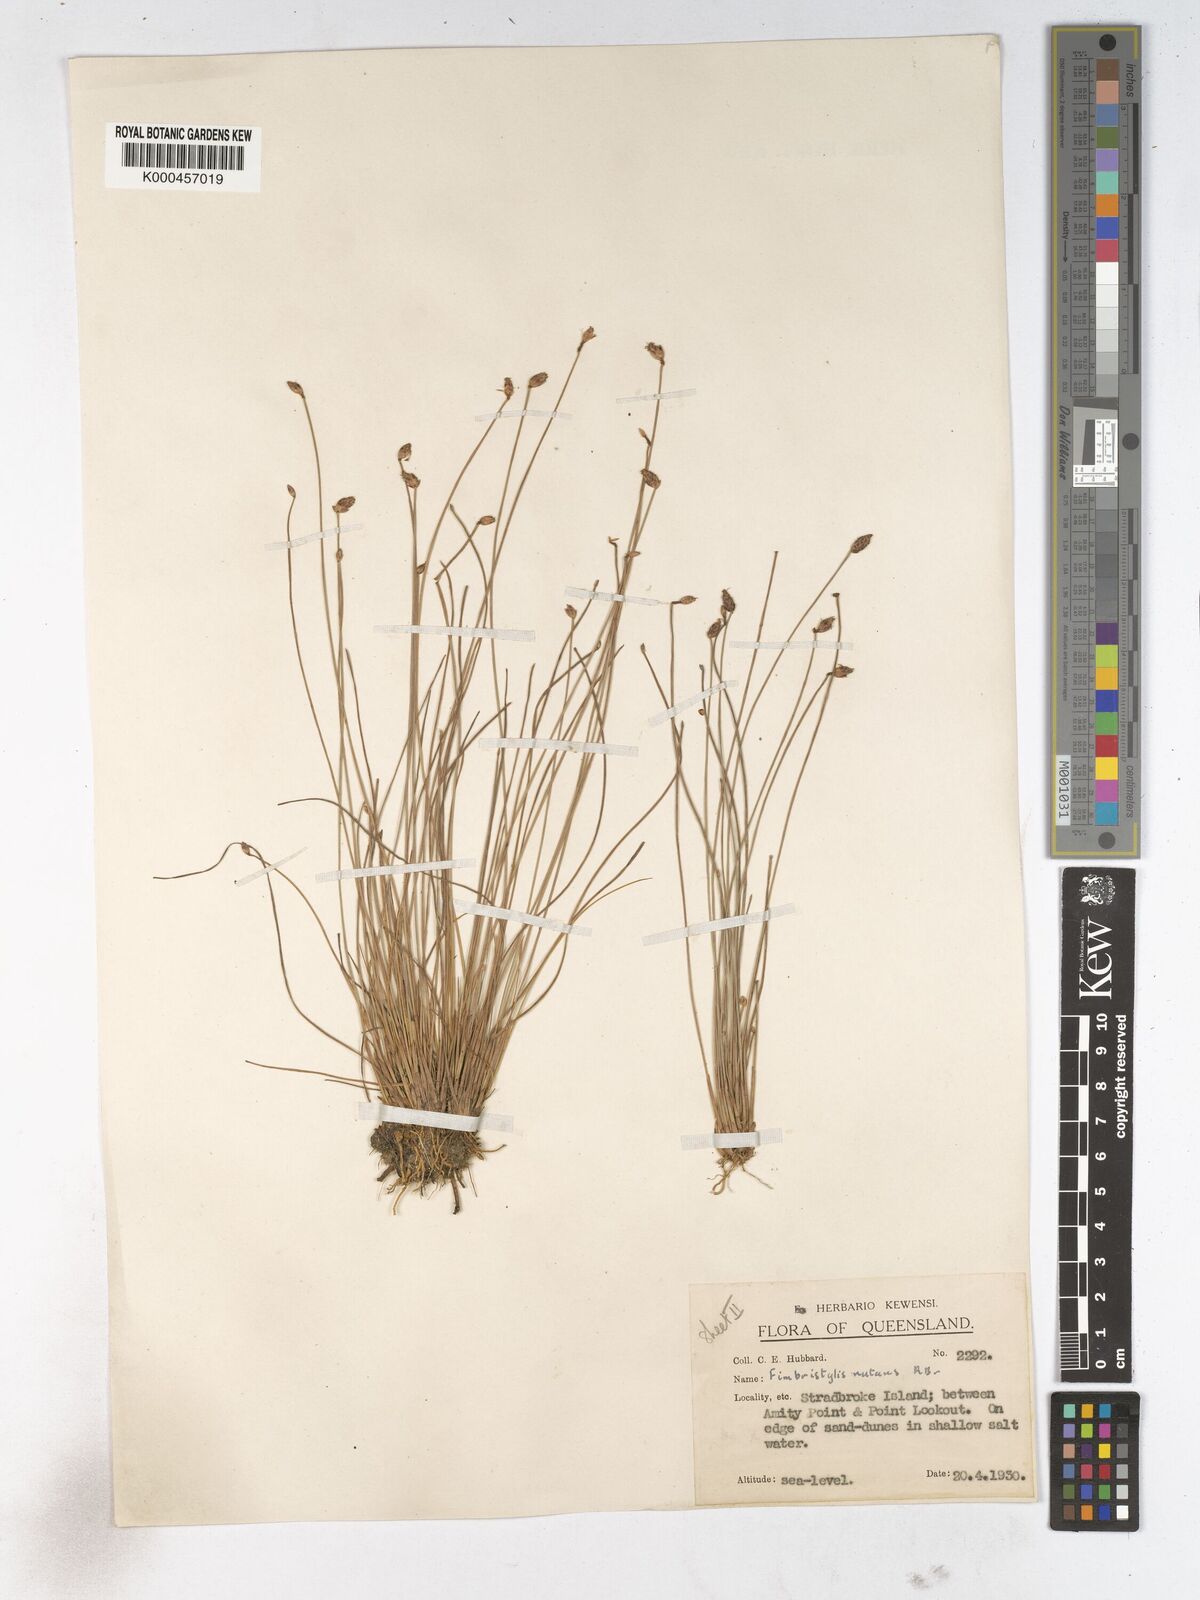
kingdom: Plantae
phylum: Tracheophyta
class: Liliopsida
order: Poales
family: Cyperaceae
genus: Fimbristylis
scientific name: Fimbristylis nutans
